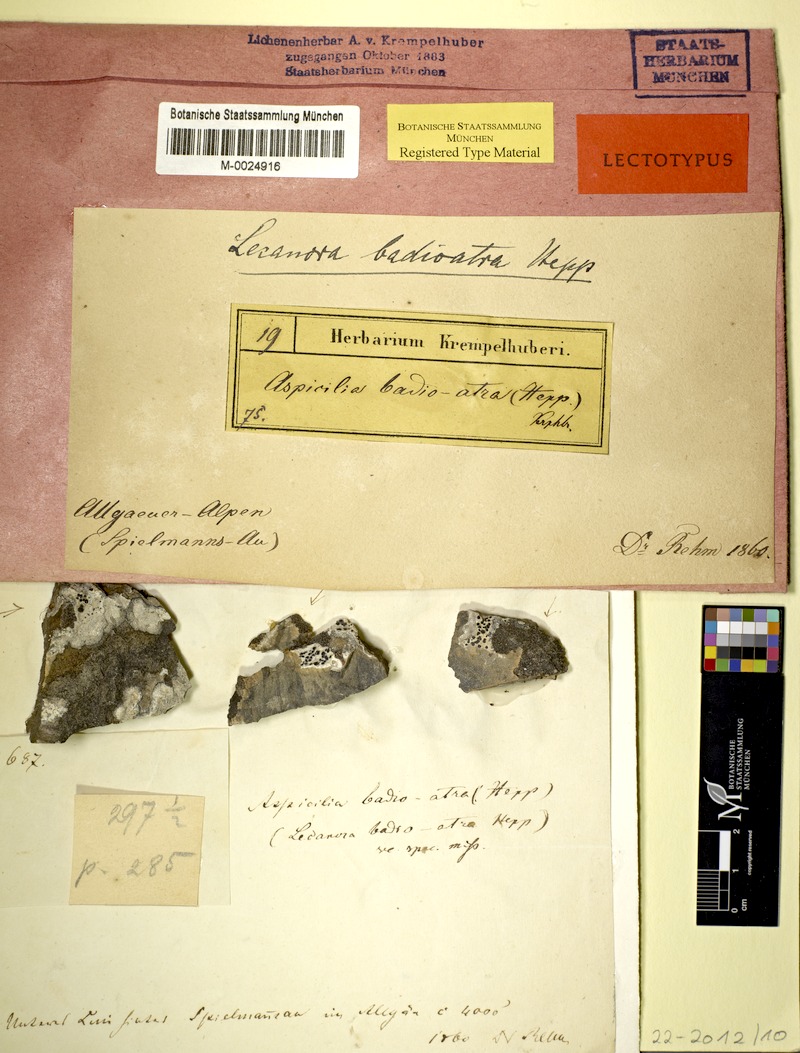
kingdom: Fungi
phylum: Ascomycota
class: Lecanoromycetes
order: Baeomycetales
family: Trapeliaceae
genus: Rimularia
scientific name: Rimularia badioatra
